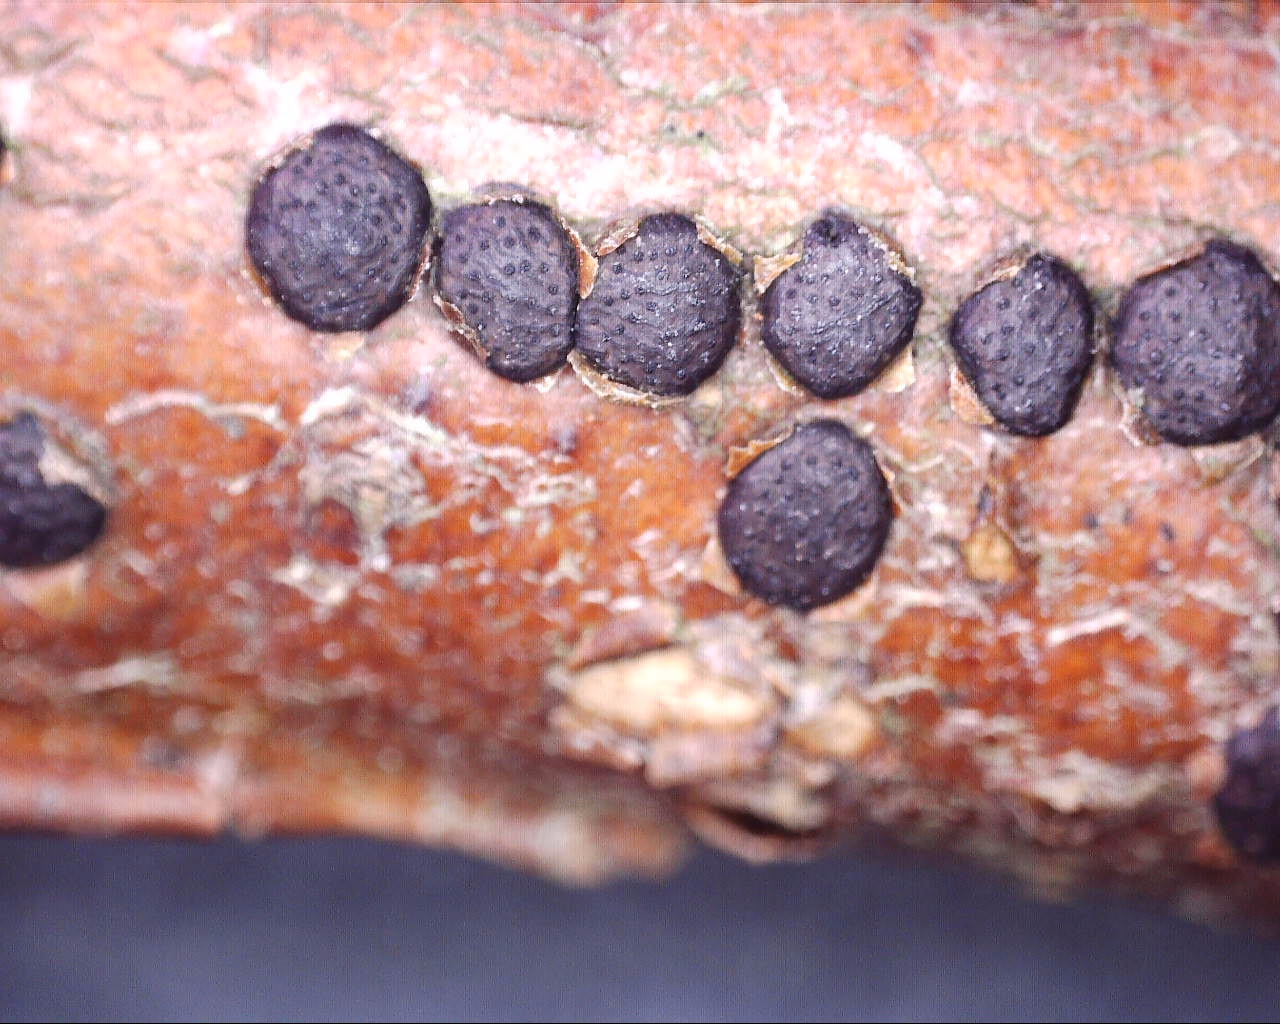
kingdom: Fungi
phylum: Ascomycota
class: Sordariomycetes
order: Xylariales
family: Diatrypaceae
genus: Diatrype
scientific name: Diatrype disciformis
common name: kant-kulskorpe
